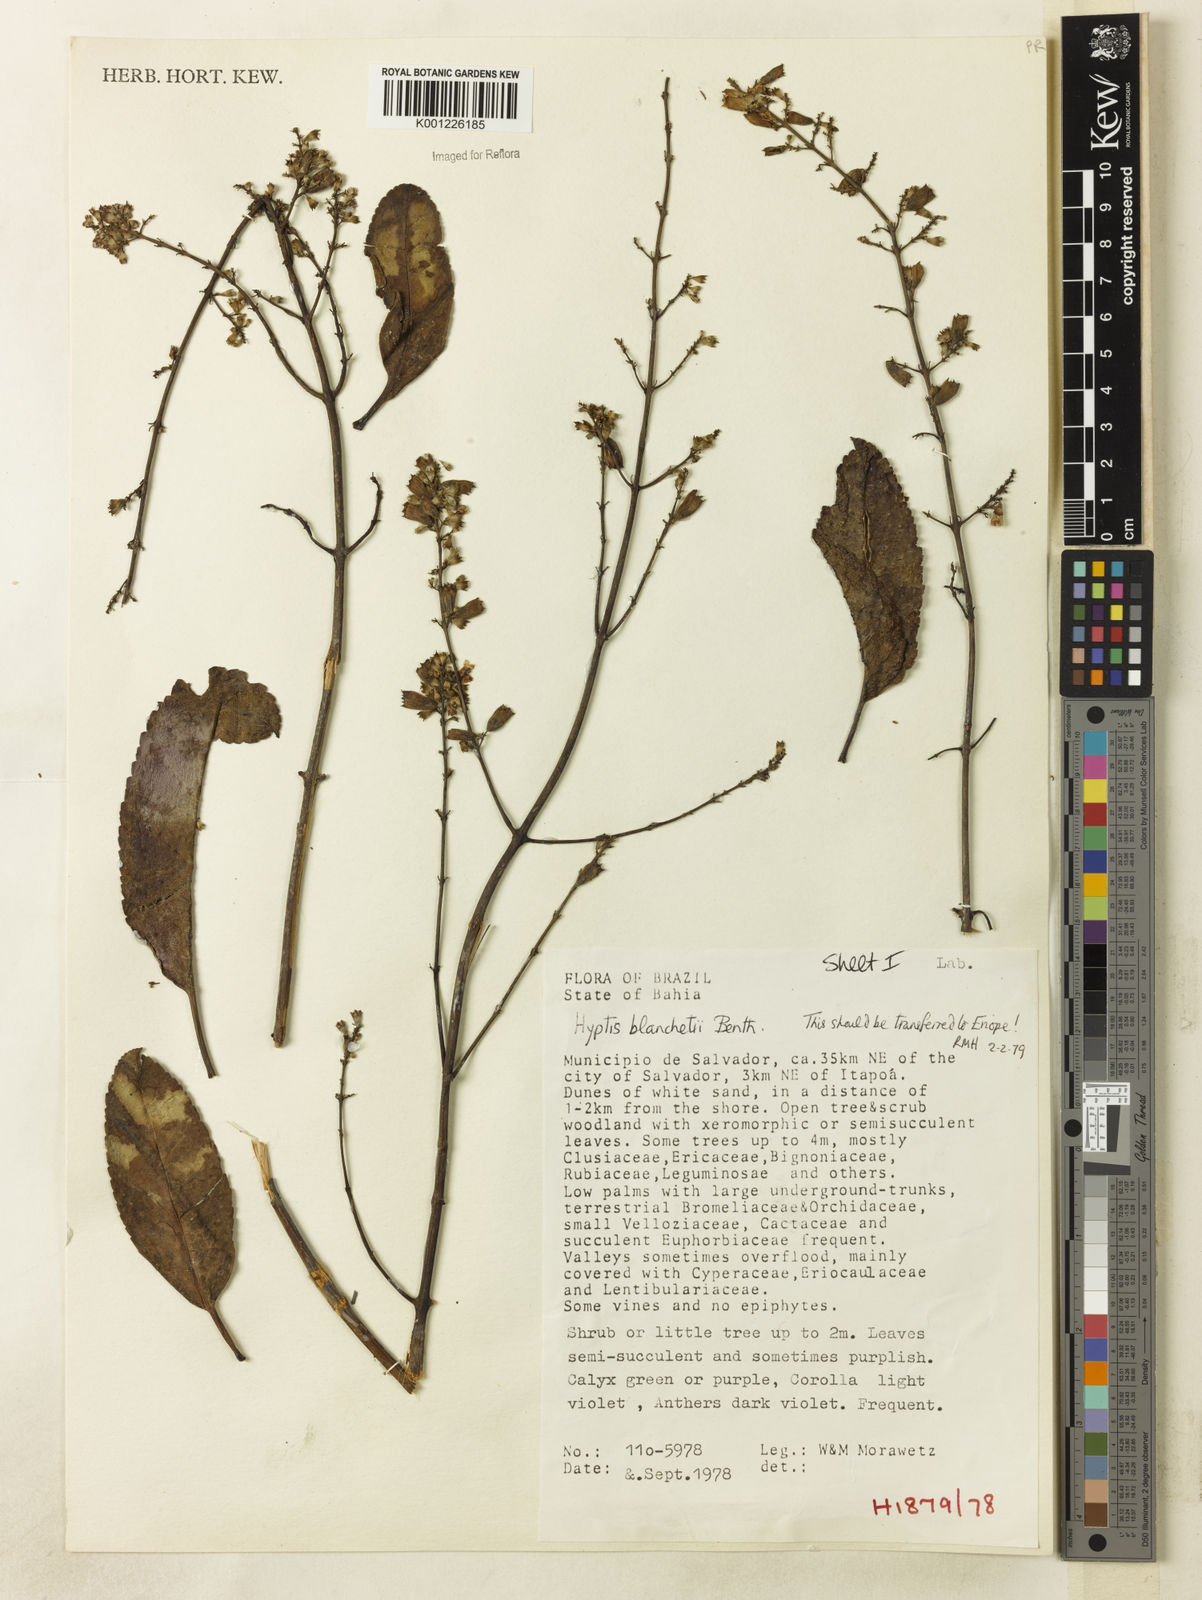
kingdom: Plantae
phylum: Tracheophyta
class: Magnoliopsida
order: Lamiales
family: Lamiaceae
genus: Eriope
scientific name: Eriope blanchetii
